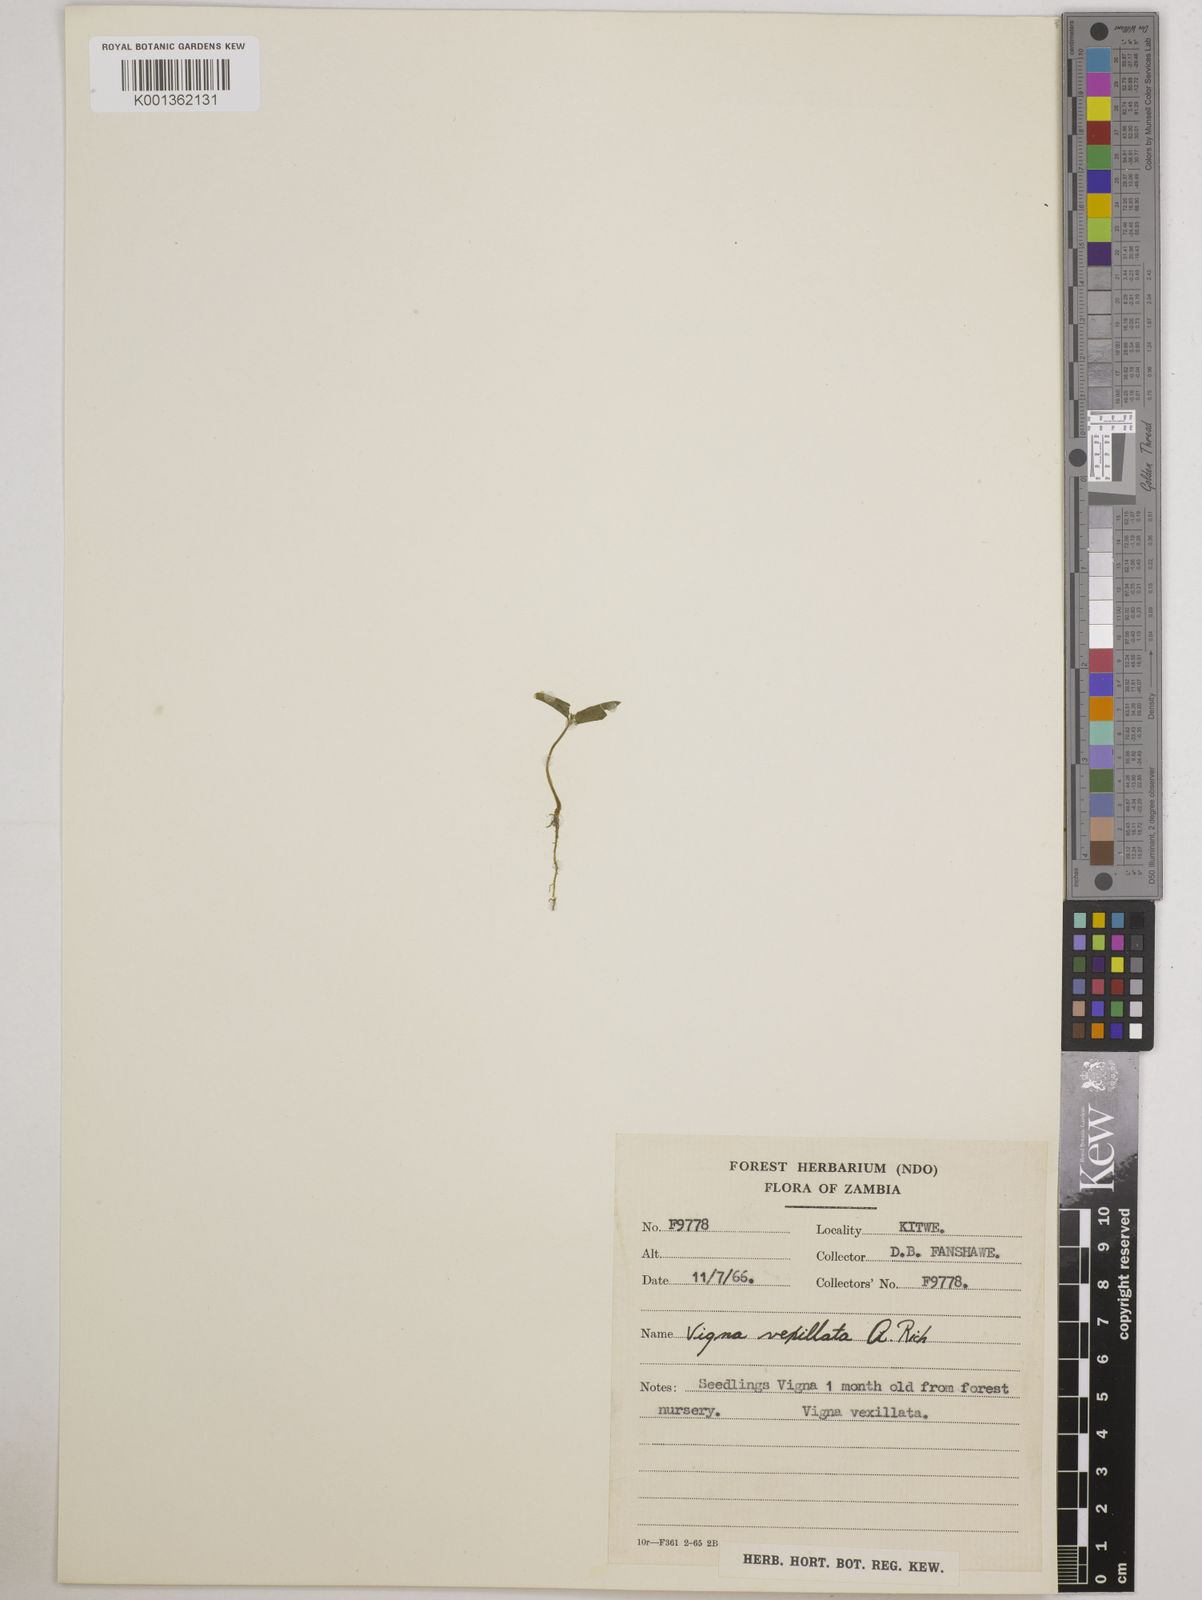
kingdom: Plantae
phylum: Tracheophyta
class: Magnoliopsida
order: Fabales
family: Fabaceae
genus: Vigna
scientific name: Vigna vexillata
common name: Zombi pea
